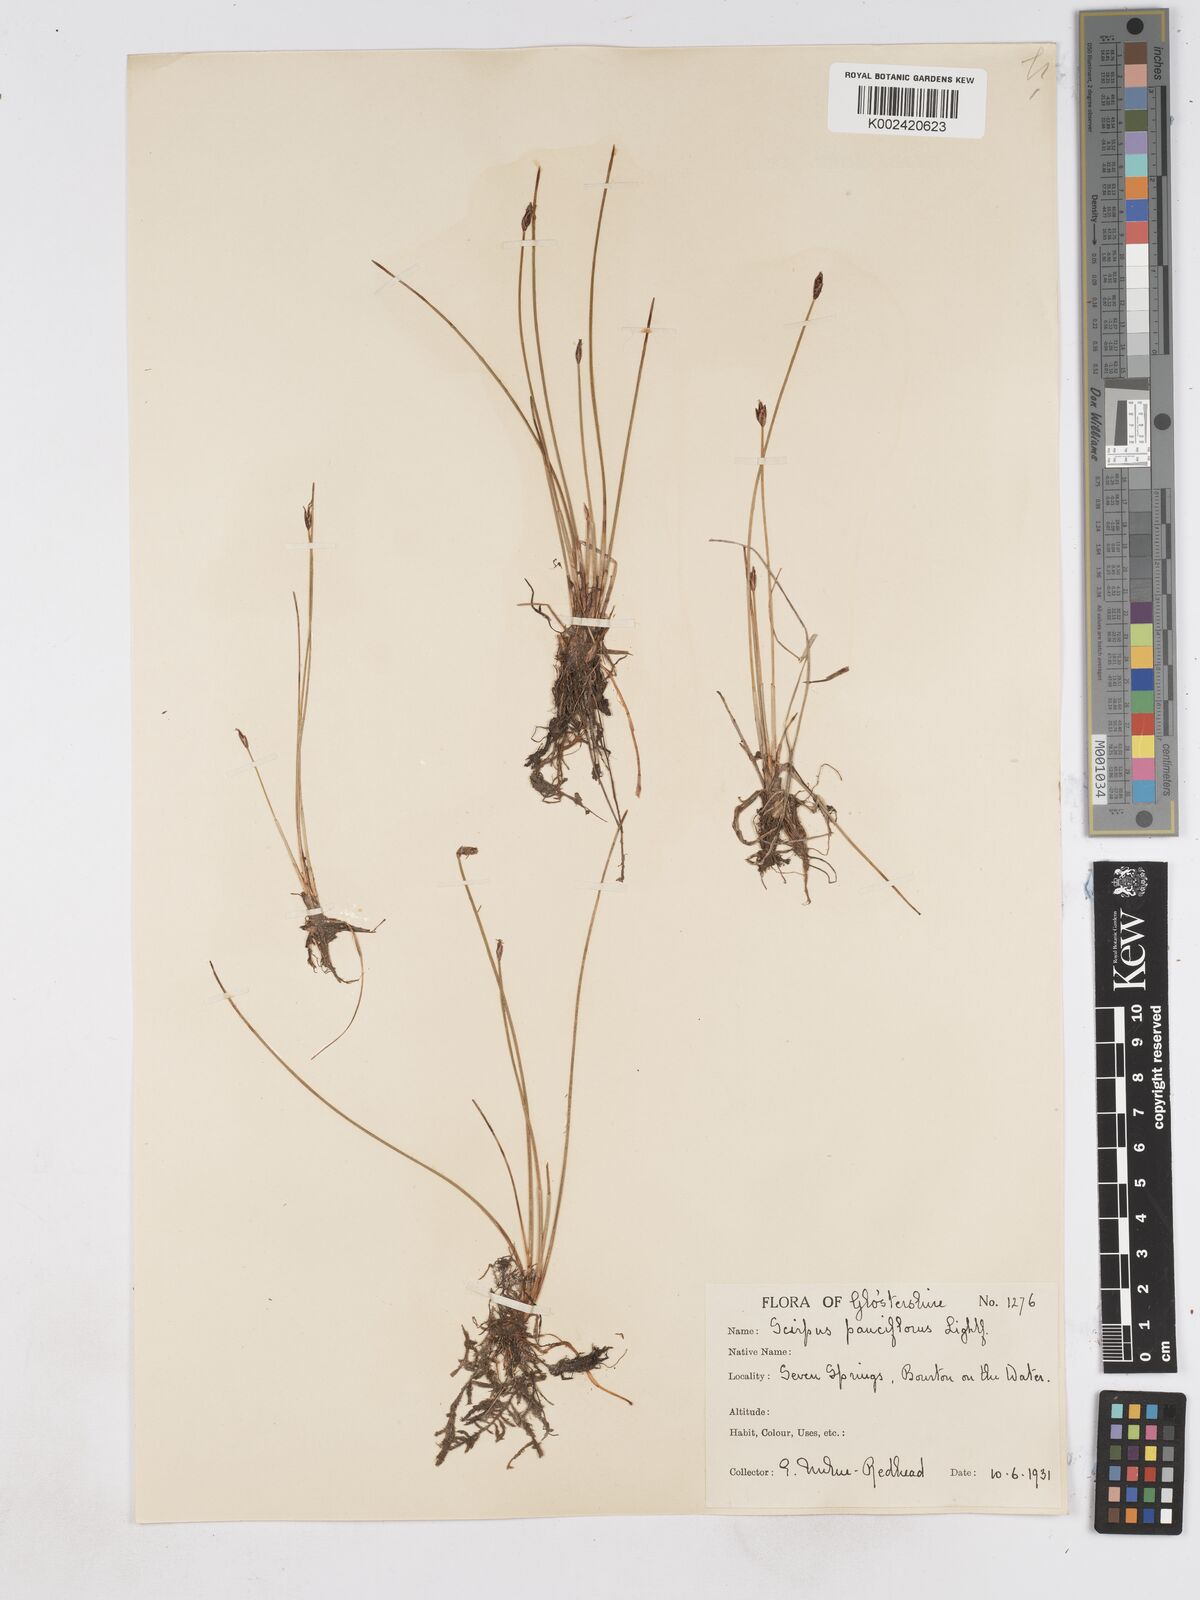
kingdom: Plantae
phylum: Tracheophyta
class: Liliopsida
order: Poales
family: Cyperaceae
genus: Eleocharis
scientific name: Eleocharis quinqueflora
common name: Few-flowered spike-rush
